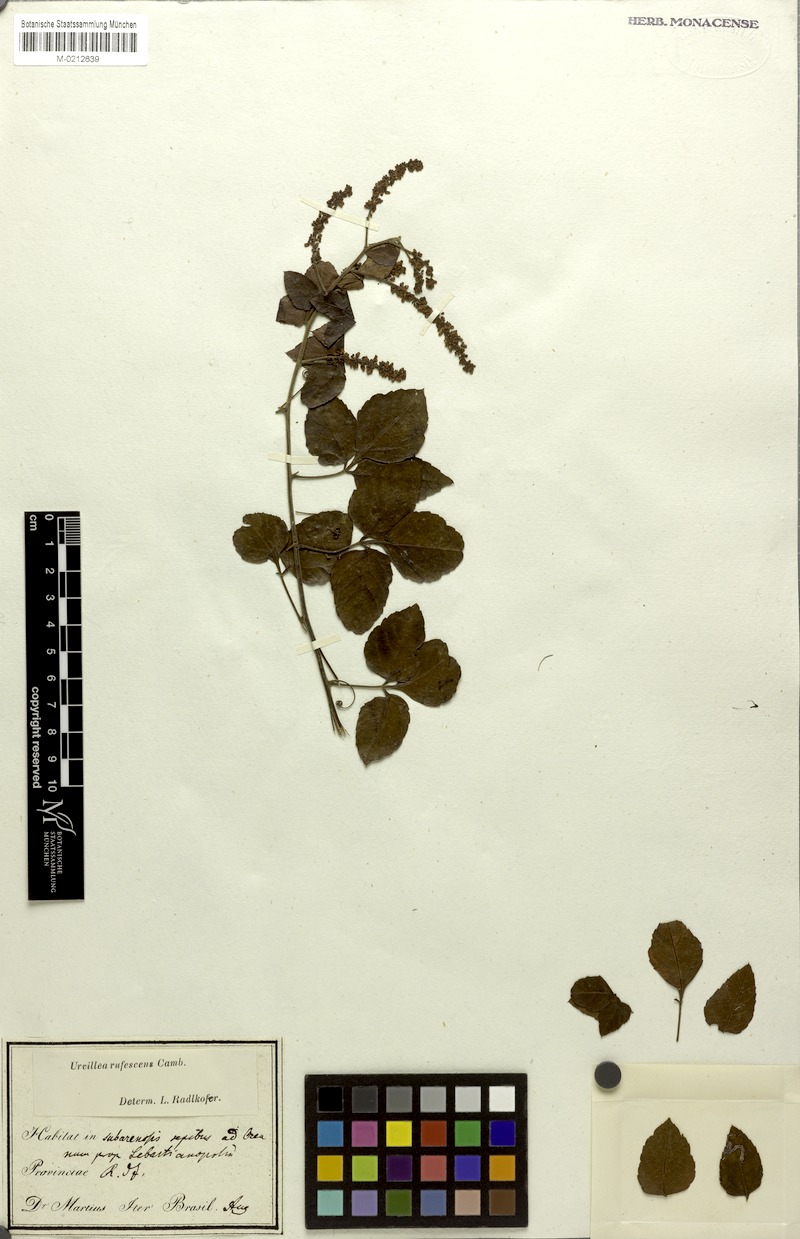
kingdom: Plantae
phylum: Tracheophyta
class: Magnoliopsida
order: Sapindales
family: Sapindaceae
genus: Urvillea
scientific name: Urvillea rufescens
